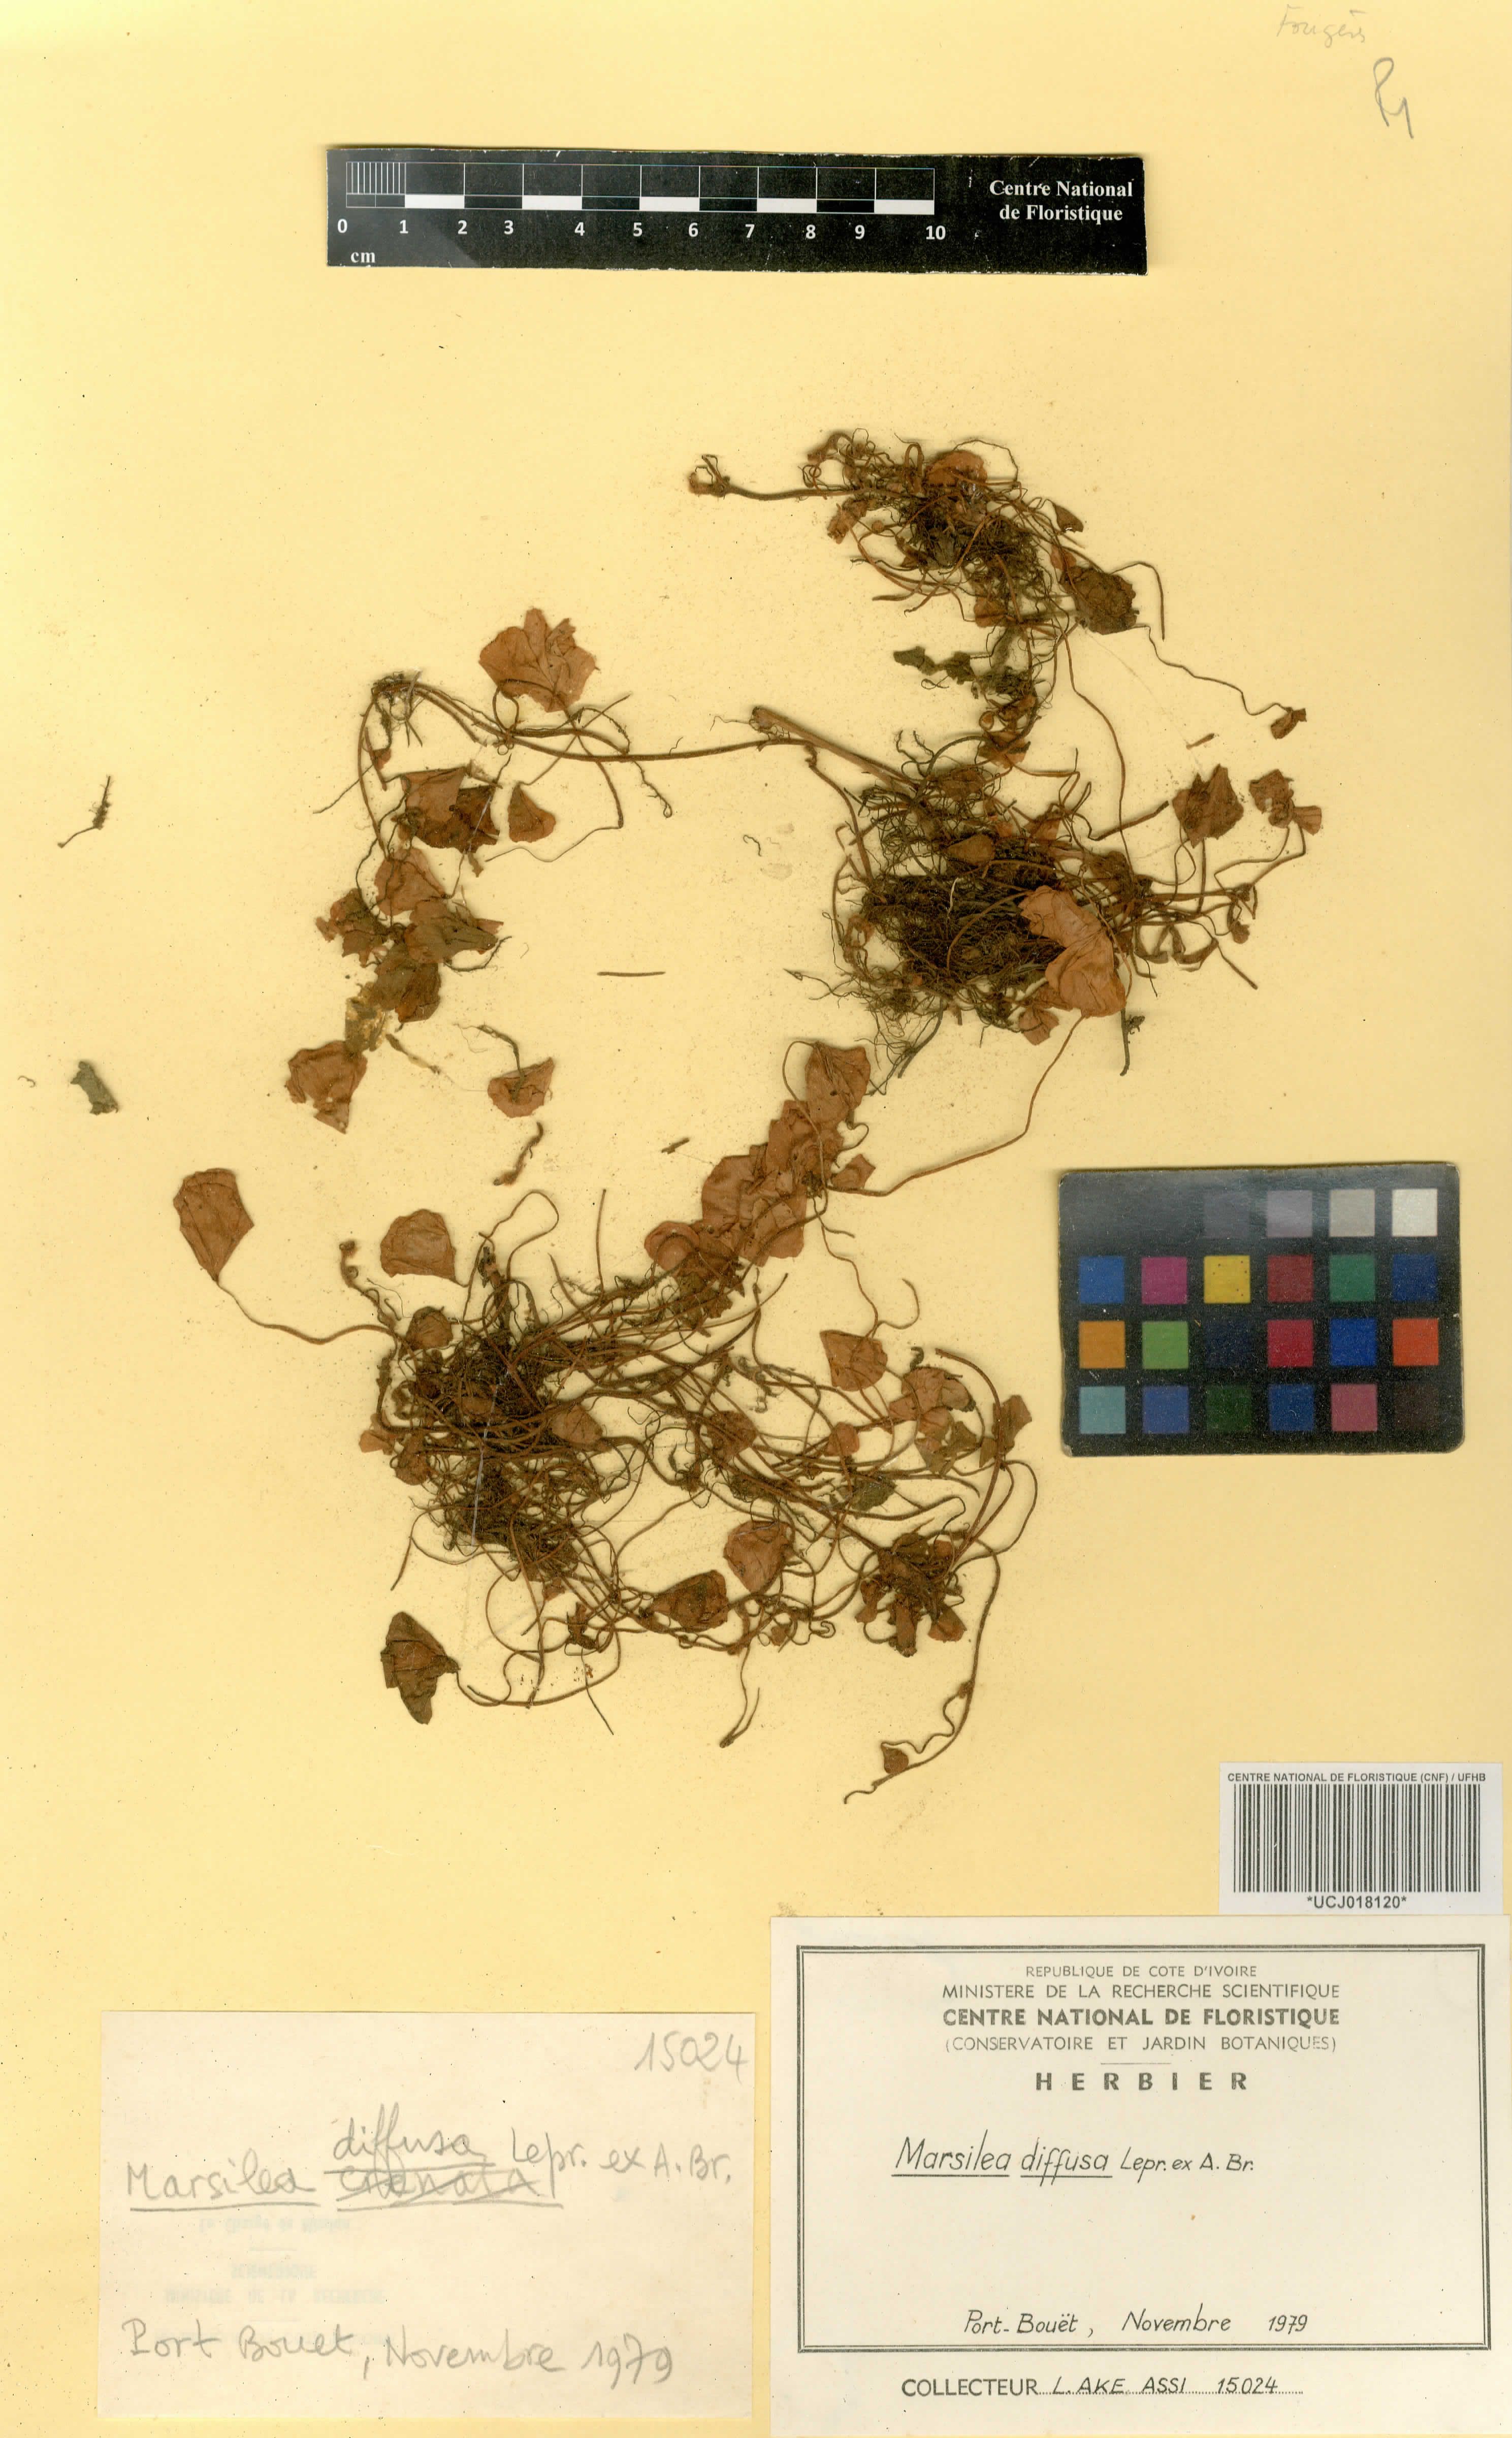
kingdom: Plantae
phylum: Tracheophyta
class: Polypodiopsida
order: Salviniales
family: Marsileaceae
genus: Marsilea
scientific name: Marsilea minuta
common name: Dwarf waterclover
